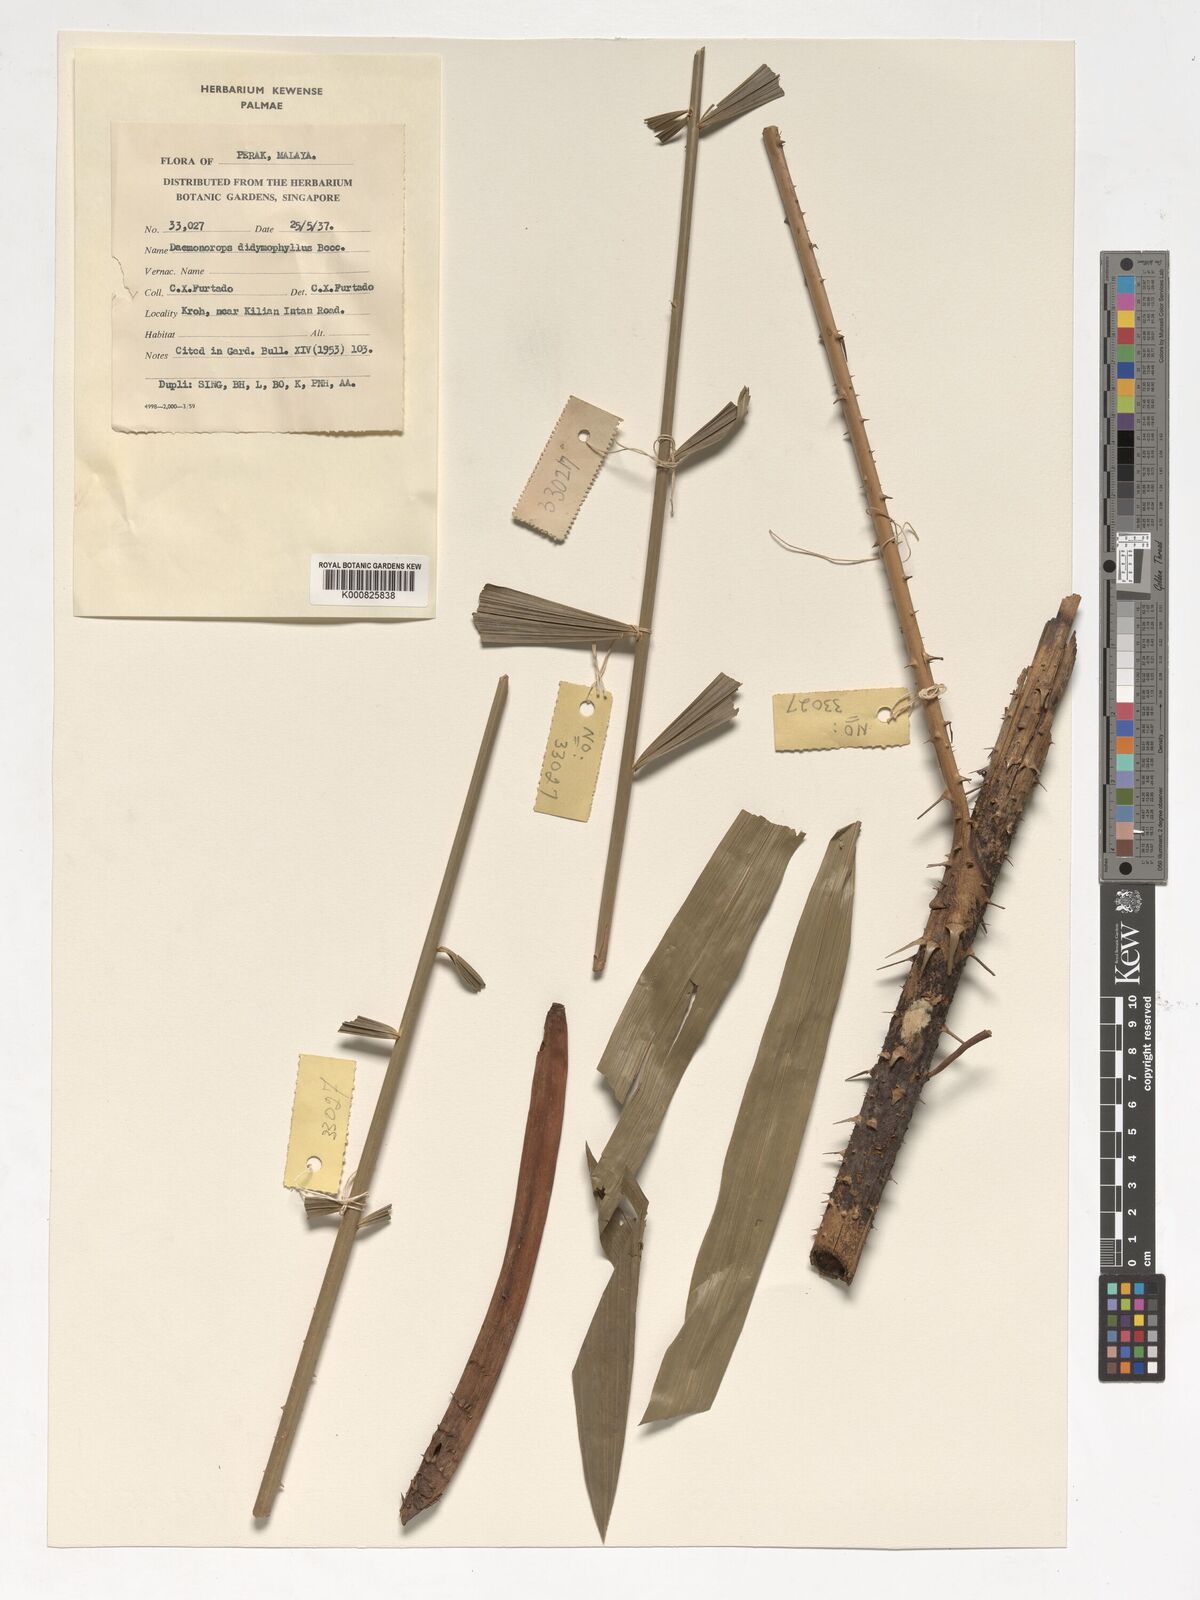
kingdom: Plantae
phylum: Tracheophyta
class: Liliopsida
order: Arecales
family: Arecaceae
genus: Calamus
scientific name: Calamus gracilipes
